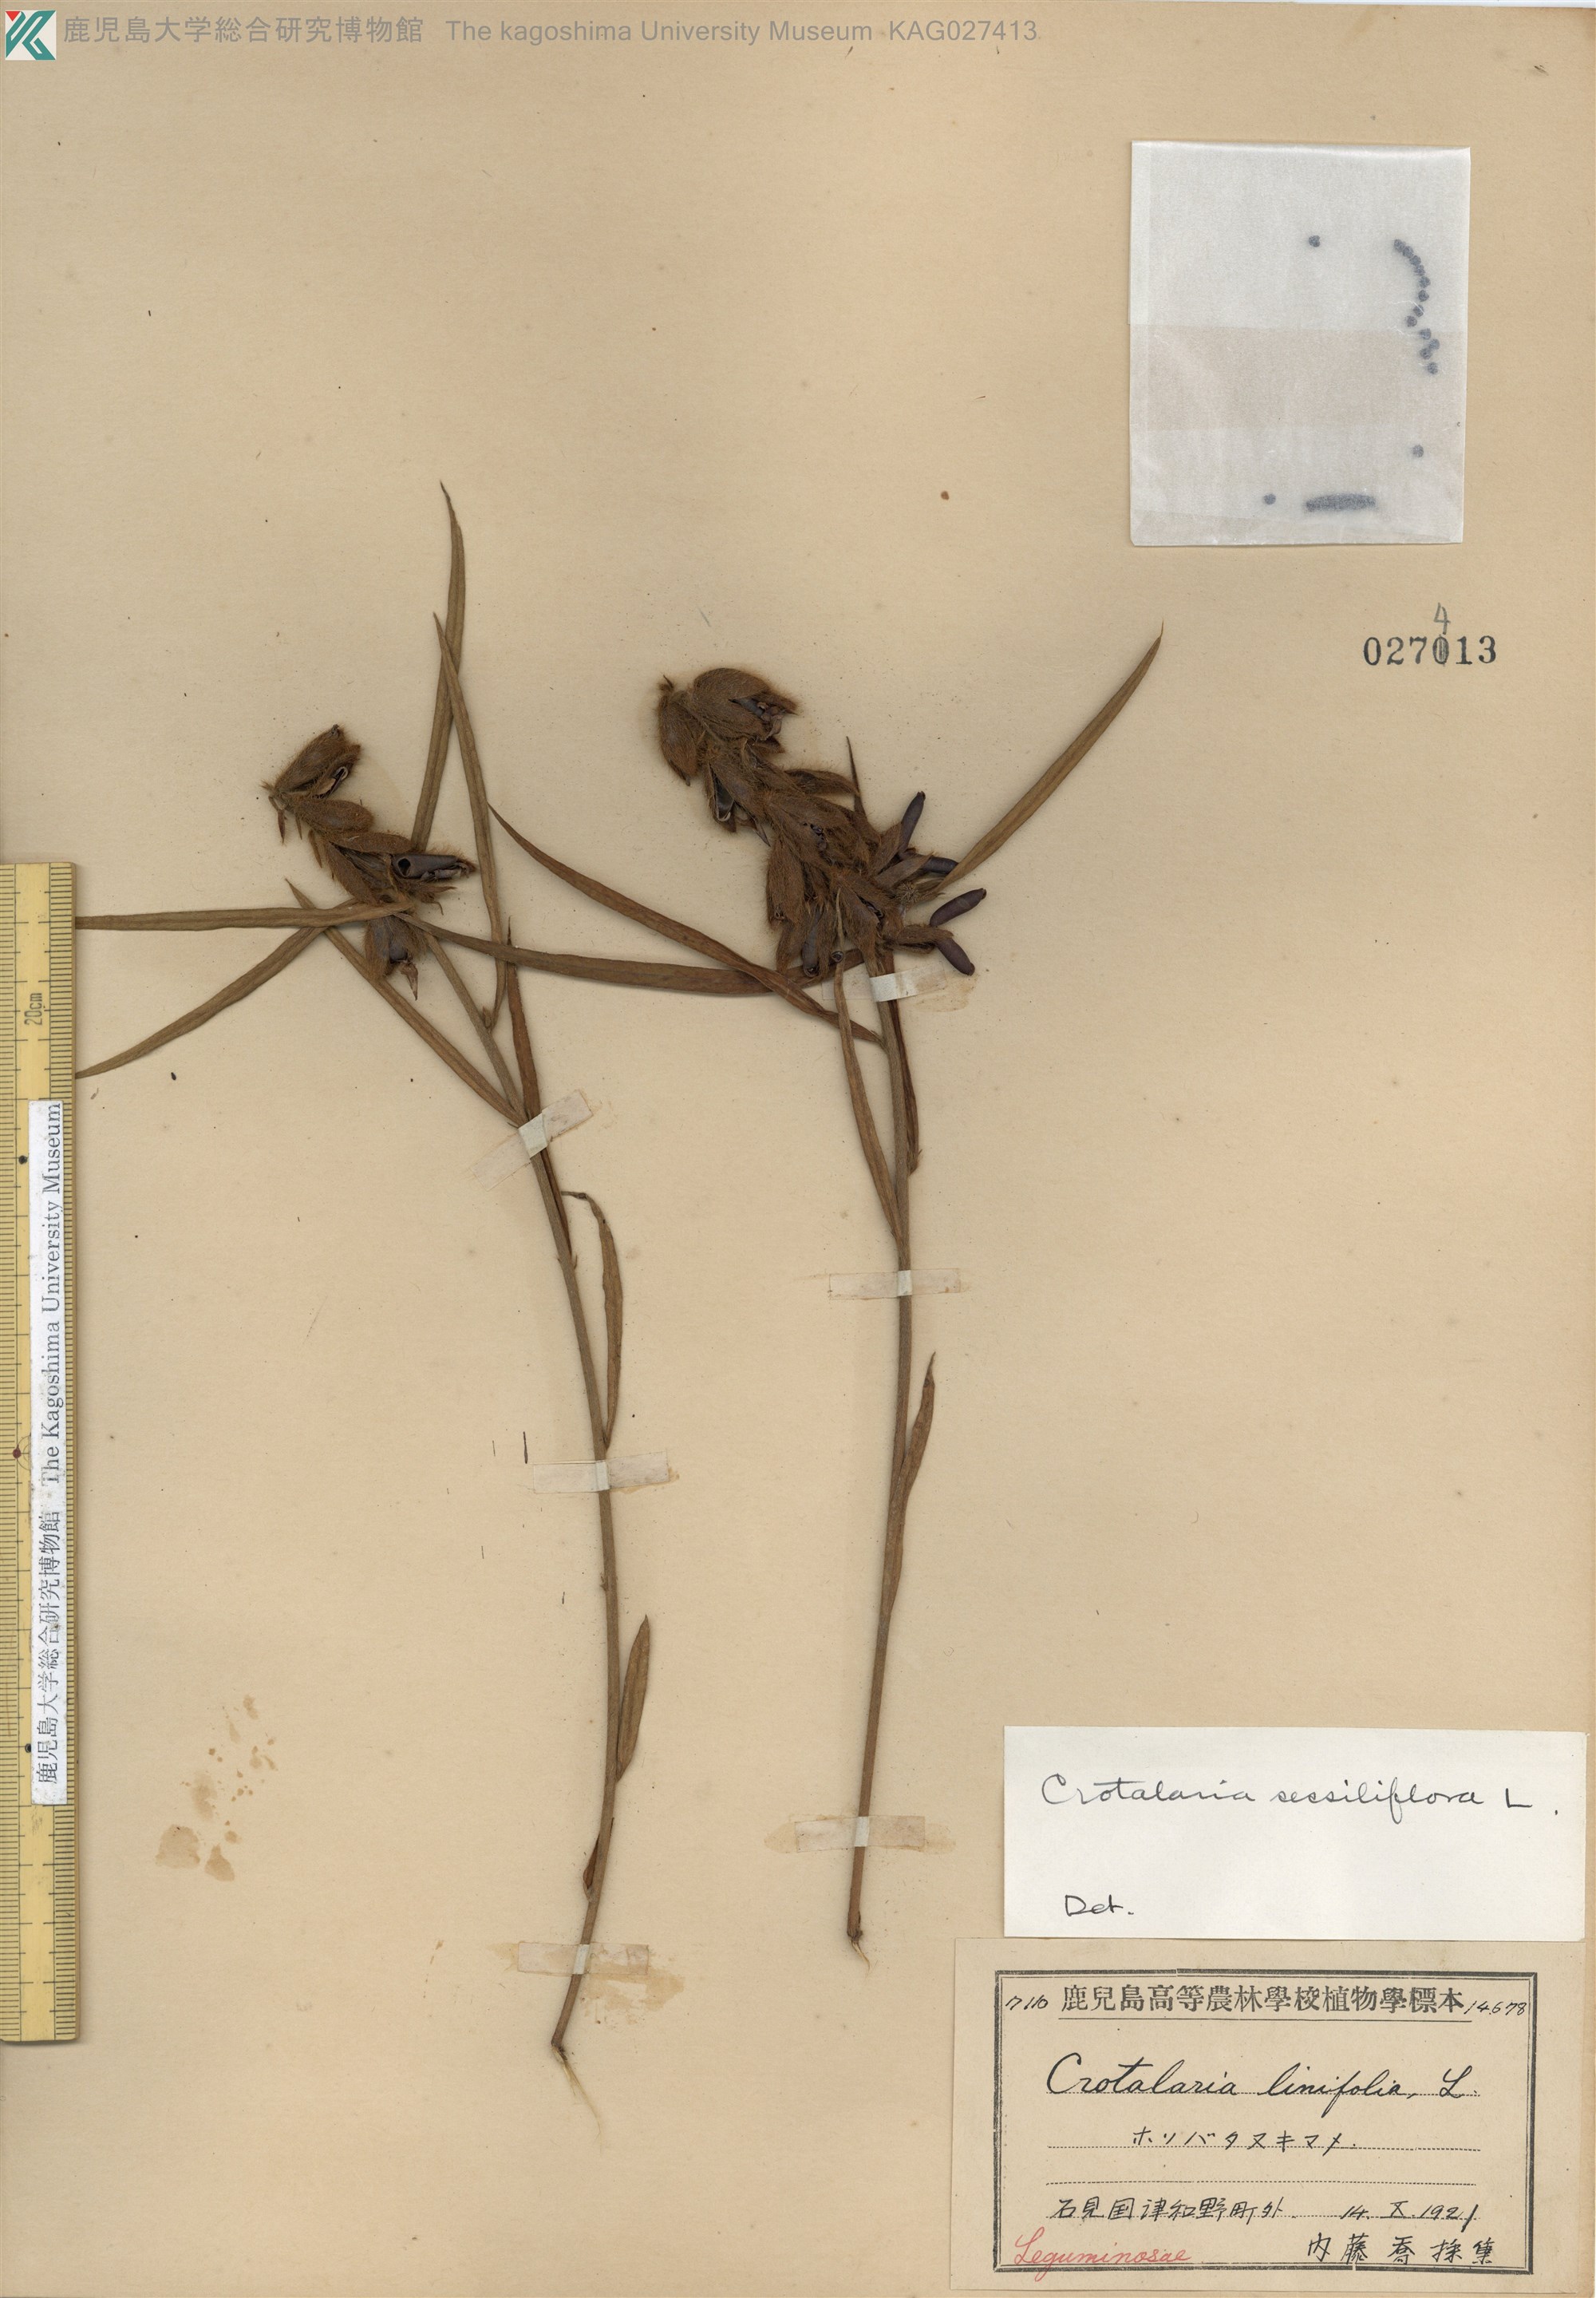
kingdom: Plantae
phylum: Tracheophyta
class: Magnoliopsida
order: Fabales
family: Fabaceae
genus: Crotalaria
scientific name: Crotalaria sessiliflora
